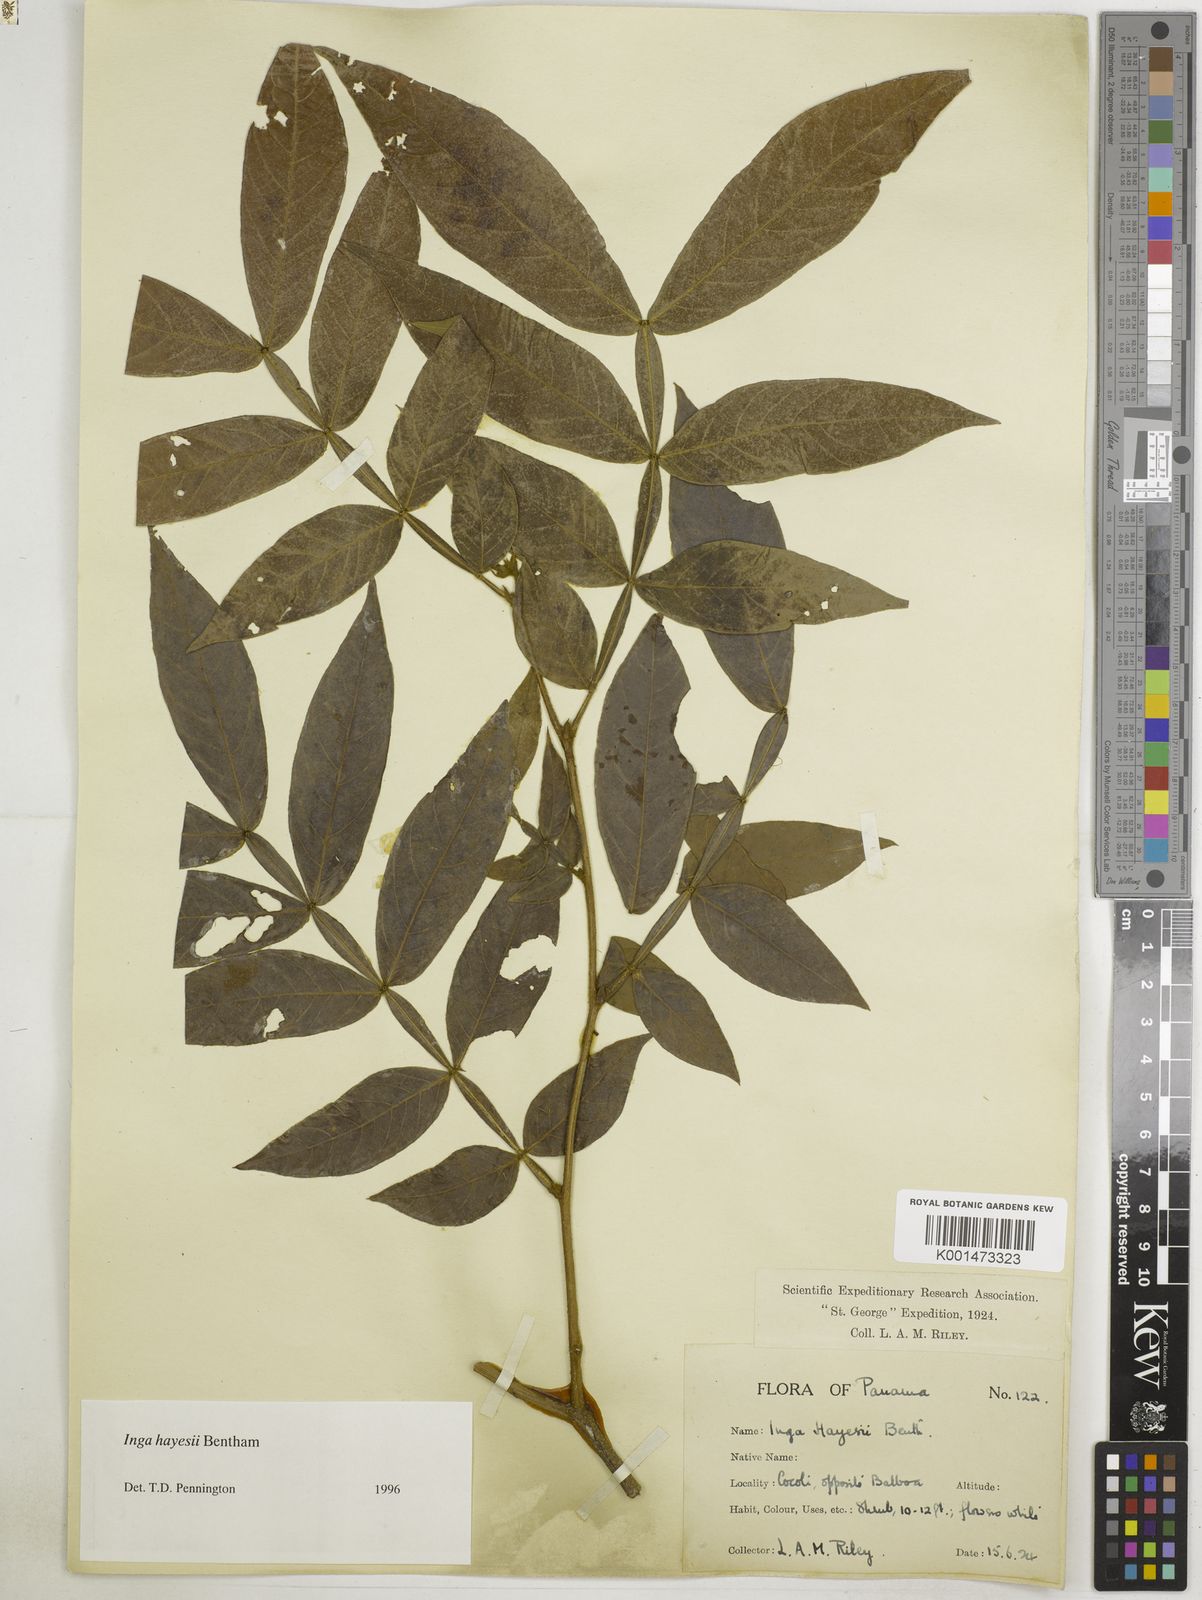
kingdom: Plantae
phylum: Tracheophyta
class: Magnoliopsida
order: Fabales
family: Fabaceae
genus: Inga
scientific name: Inga hayesii
